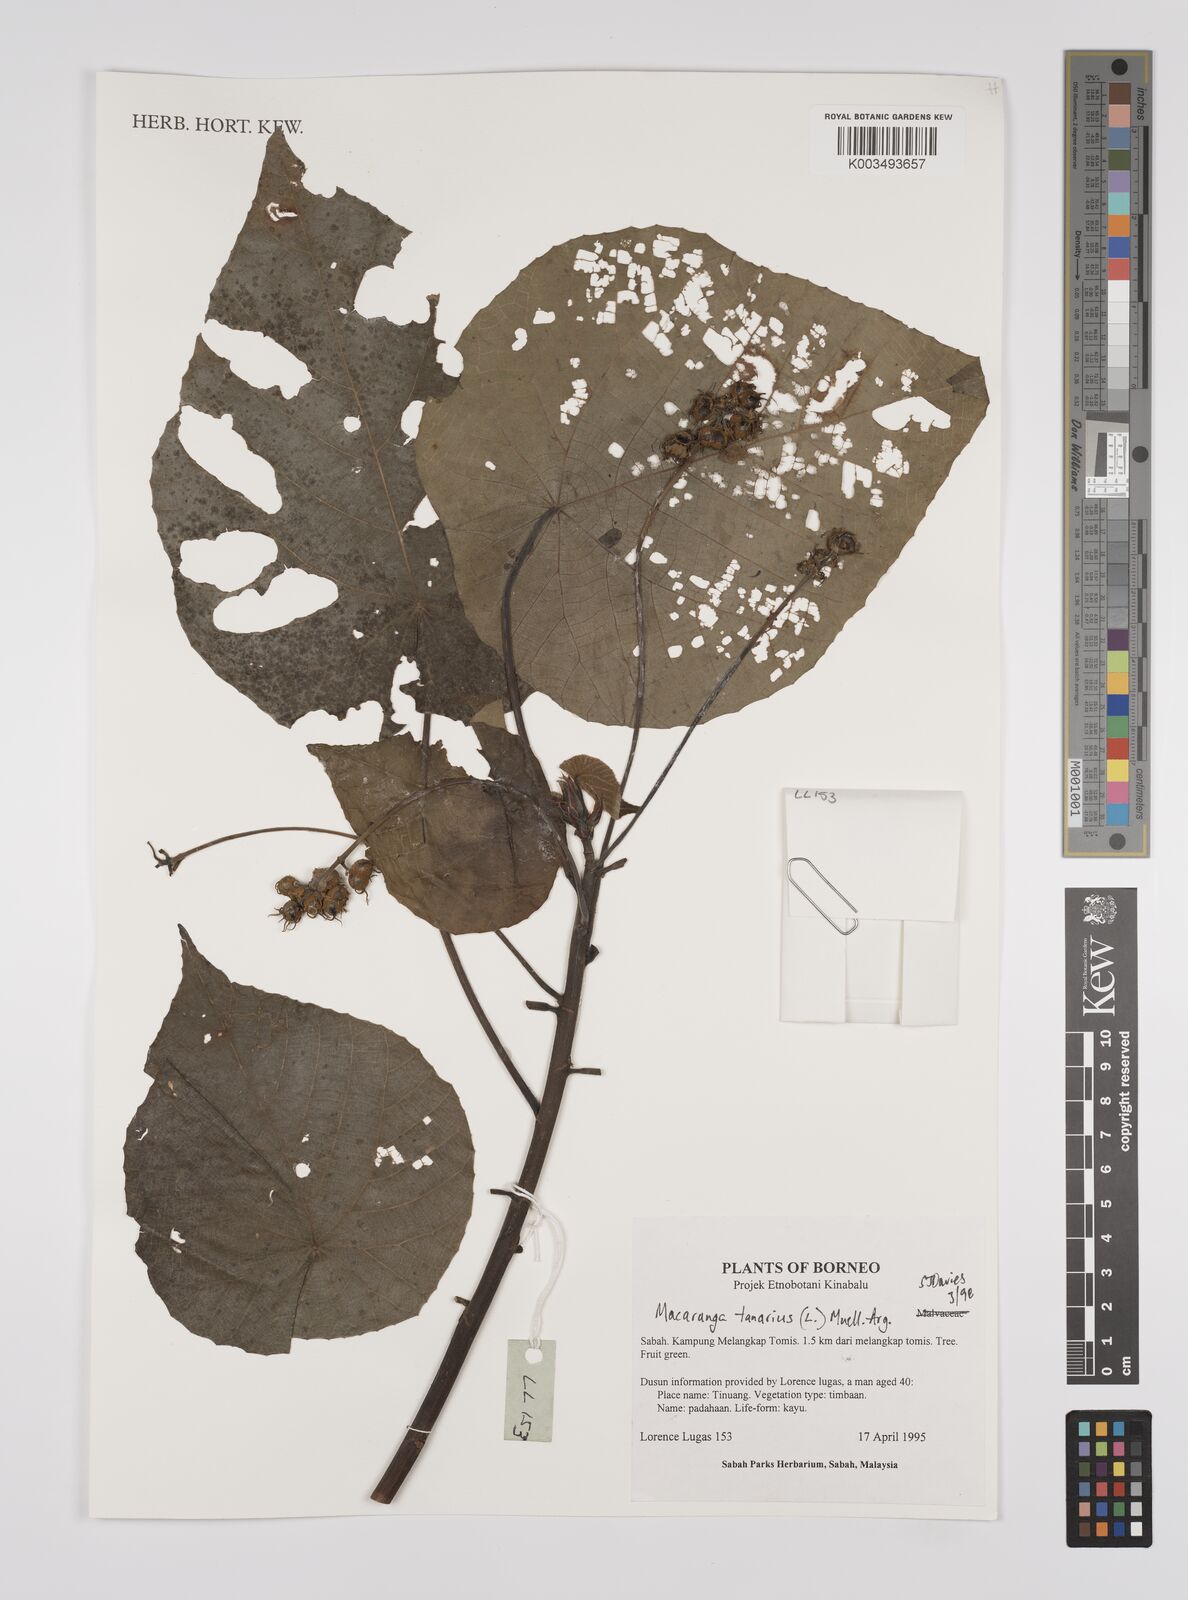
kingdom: Plantae
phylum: Tracheophyta
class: Magnoliopsida
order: Malpighiales
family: Euphorbiaceae
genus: Macaranga
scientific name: Macaranga tanarius
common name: Parasol leaf tree
